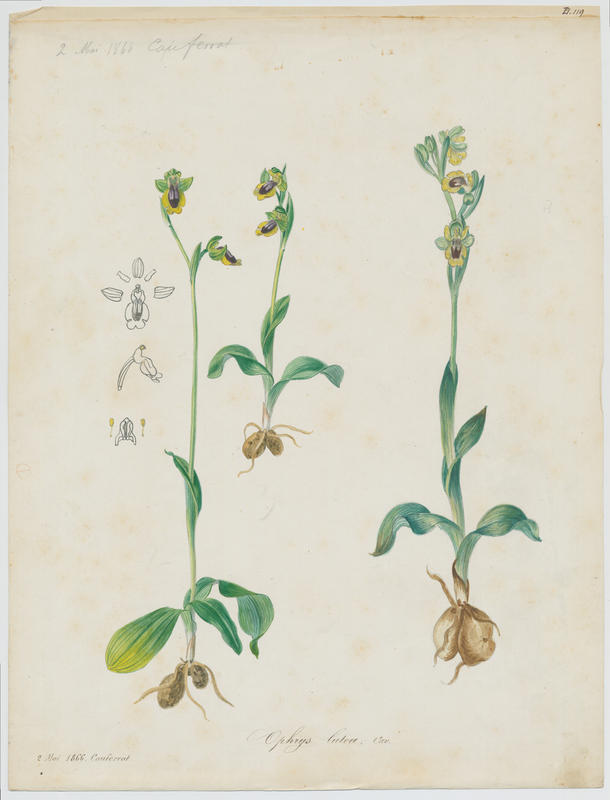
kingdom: Plantae
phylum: Tracheophyta
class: Liliopsida
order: Asparagales
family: Orchidaceae
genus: Ophrys
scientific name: Ophrys lutea
